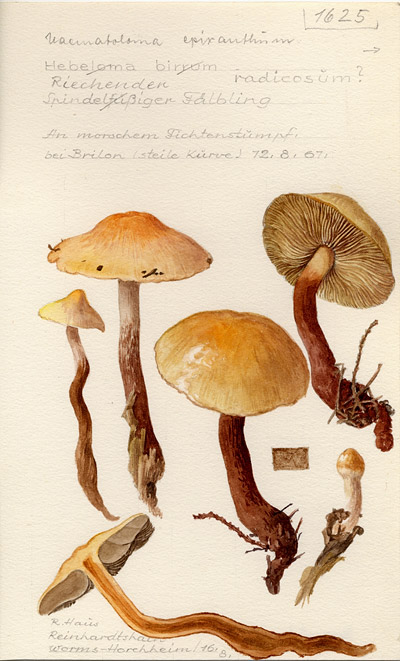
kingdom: Fungi
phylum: Basidiomycota
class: Agaricomycetes
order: Agaricales
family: Strophariaceae
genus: Hypholoma
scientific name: Hypholoma radicosum
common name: Rooting brownie
